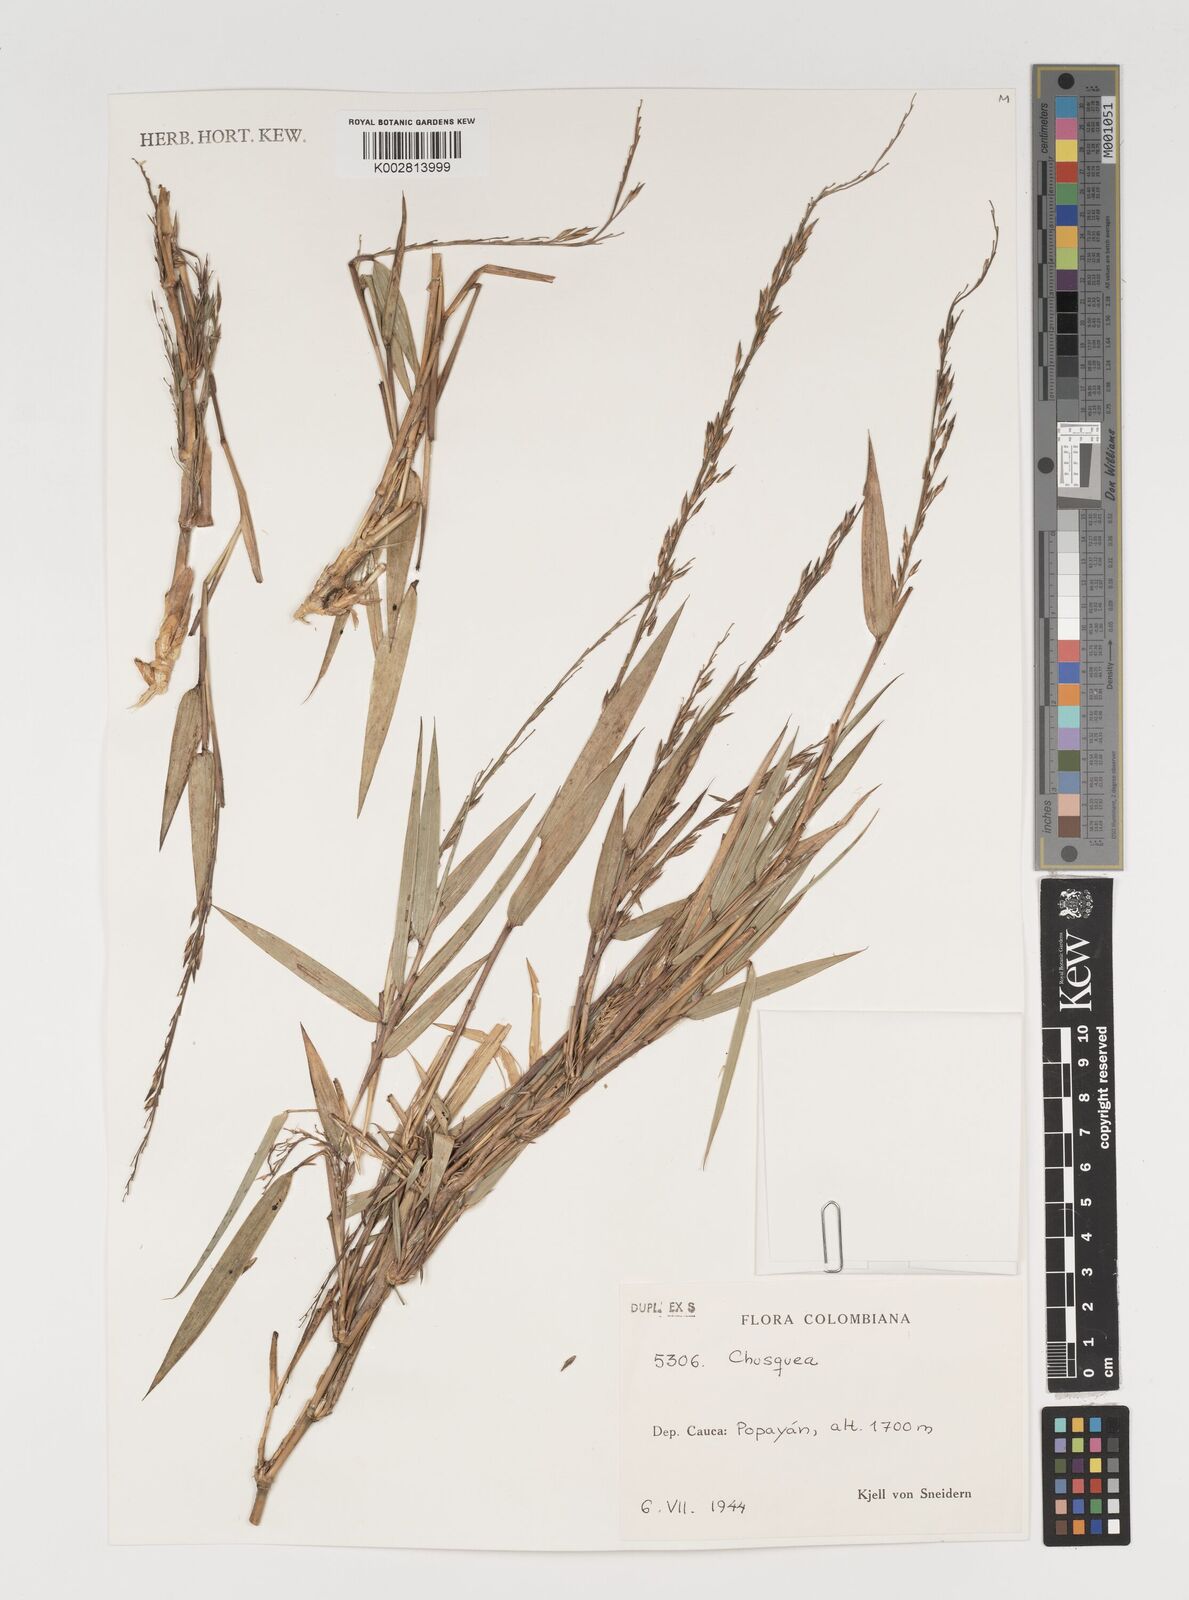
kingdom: Plantae
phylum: Tracheophyta
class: Liliopsida
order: Poales
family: Poaceae
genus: Chusquea
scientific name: Chusquea
